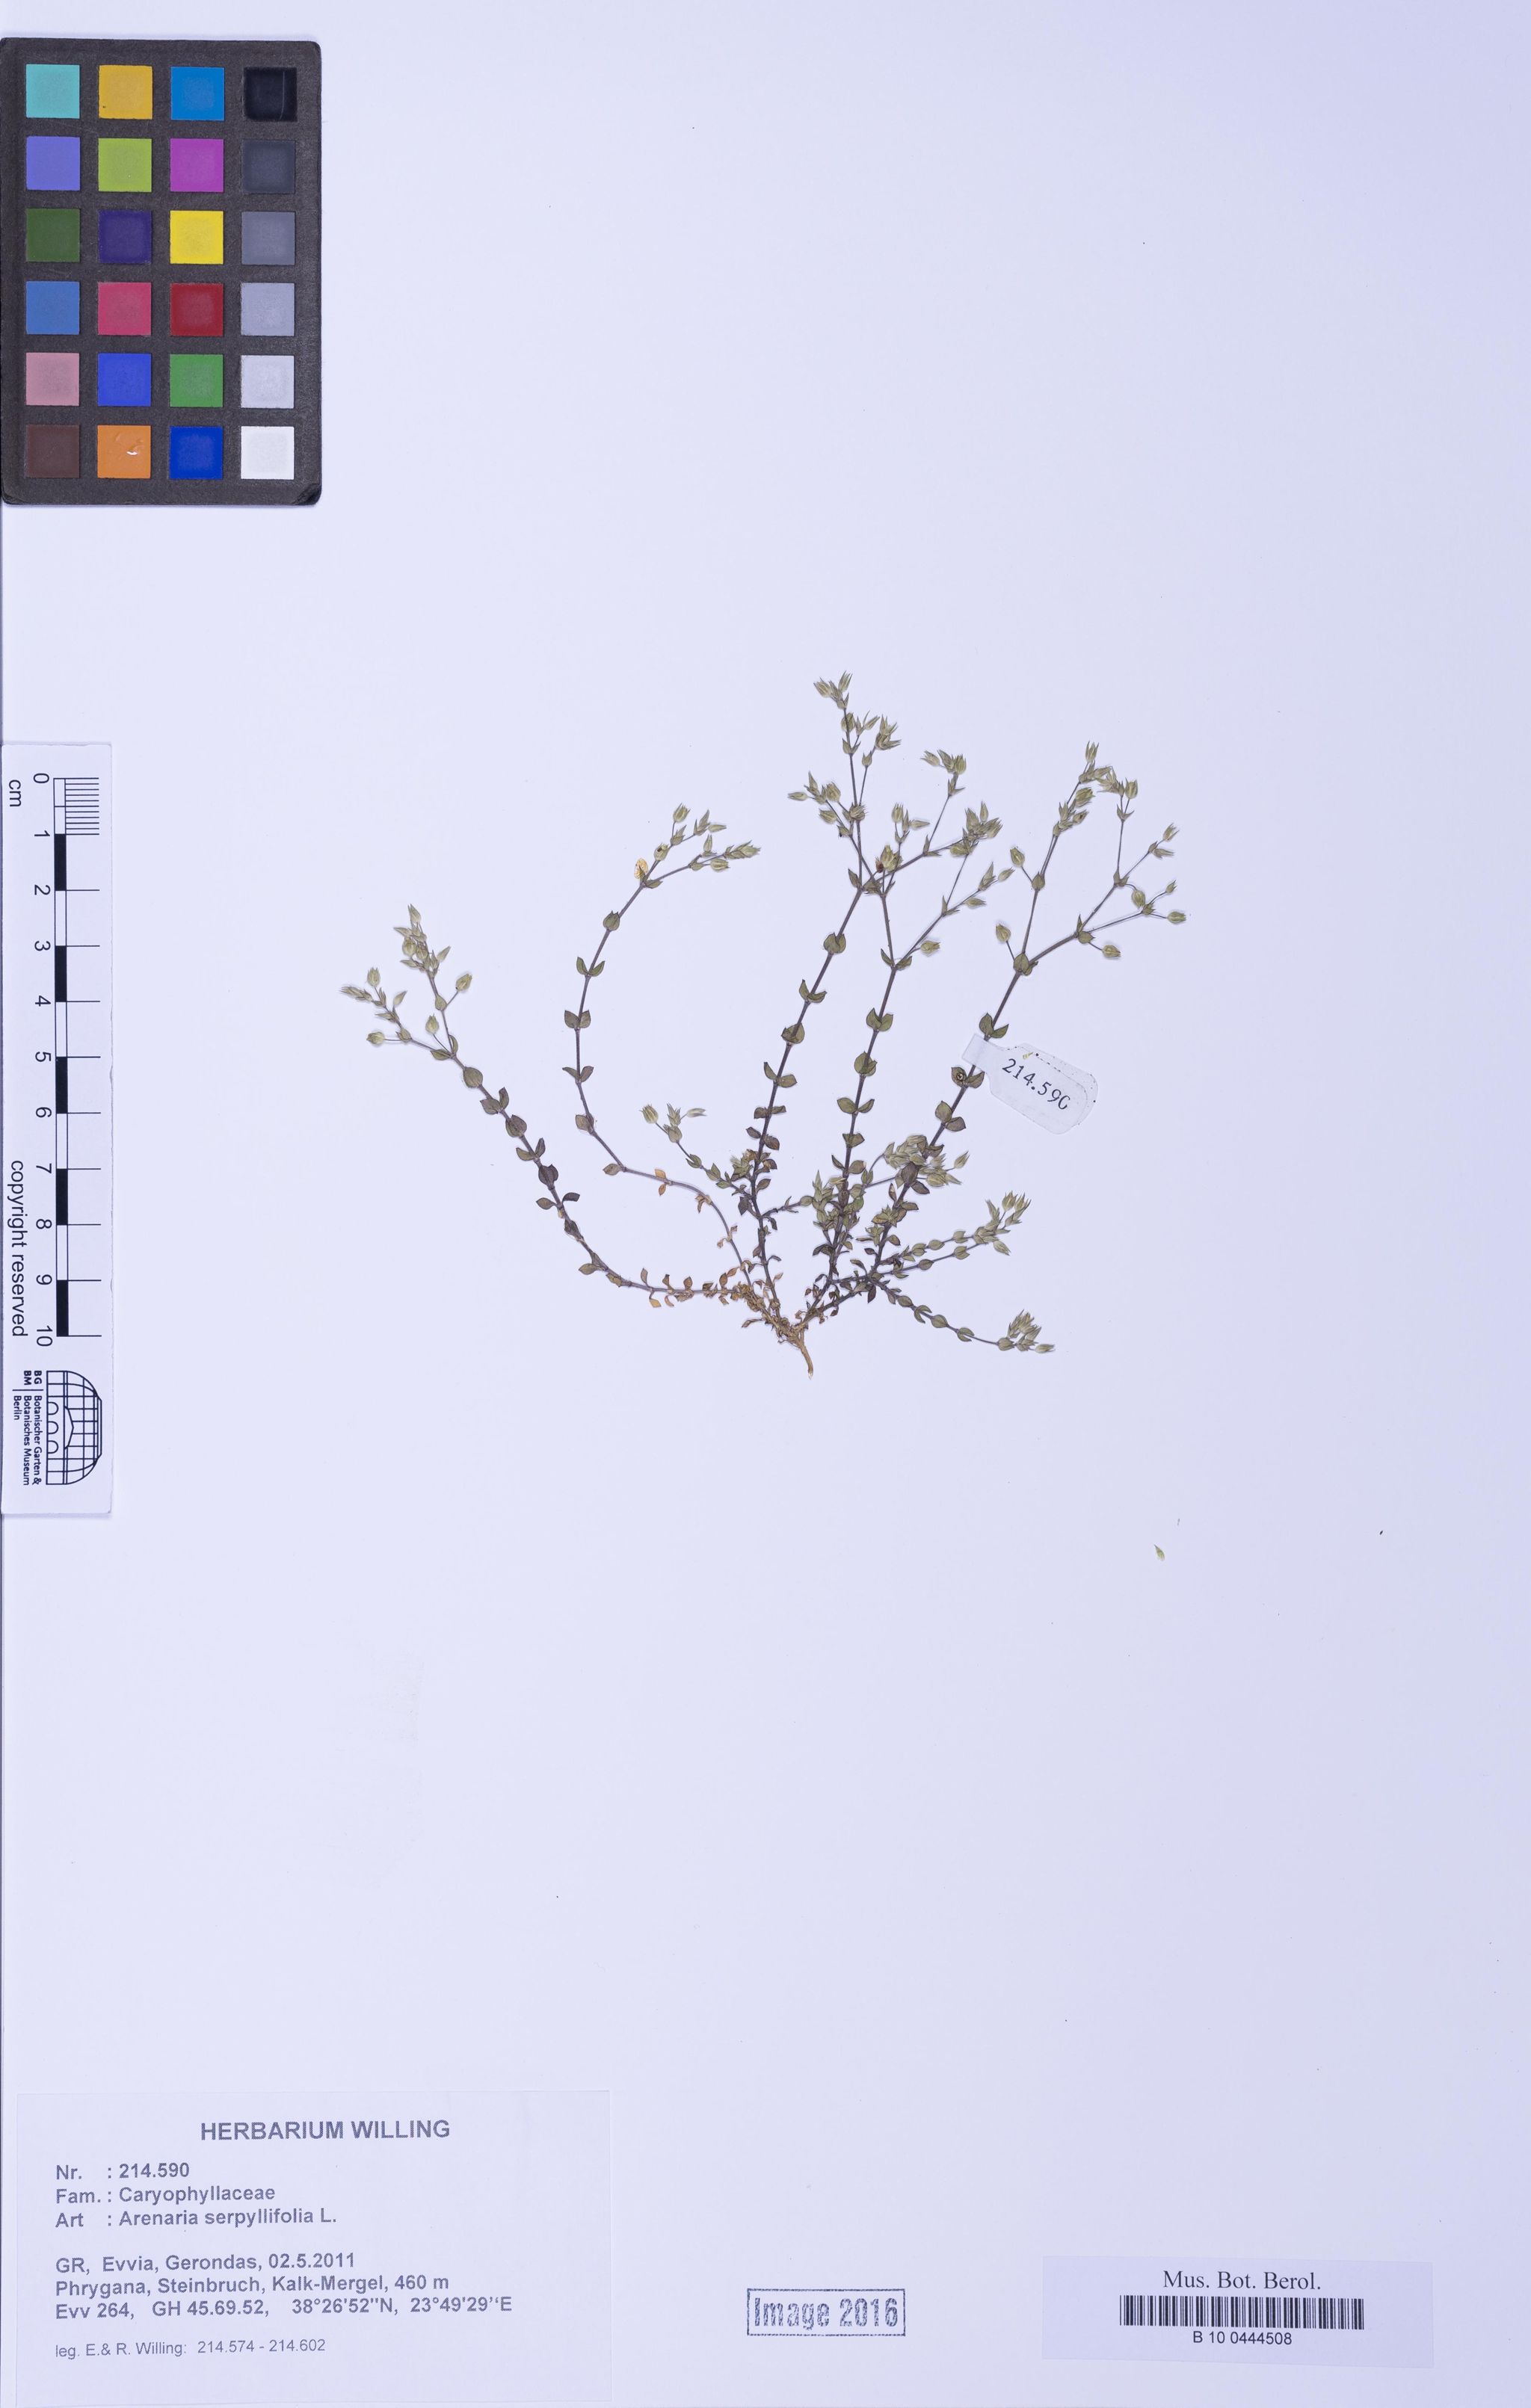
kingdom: Plantae
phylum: Tracheophyta
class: Magnoliopsida
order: Caryophyllales
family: Caryophyllaceae
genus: Arenaria
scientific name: Arenaria serpyllifolia
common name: Thyme-leaved sandwort
